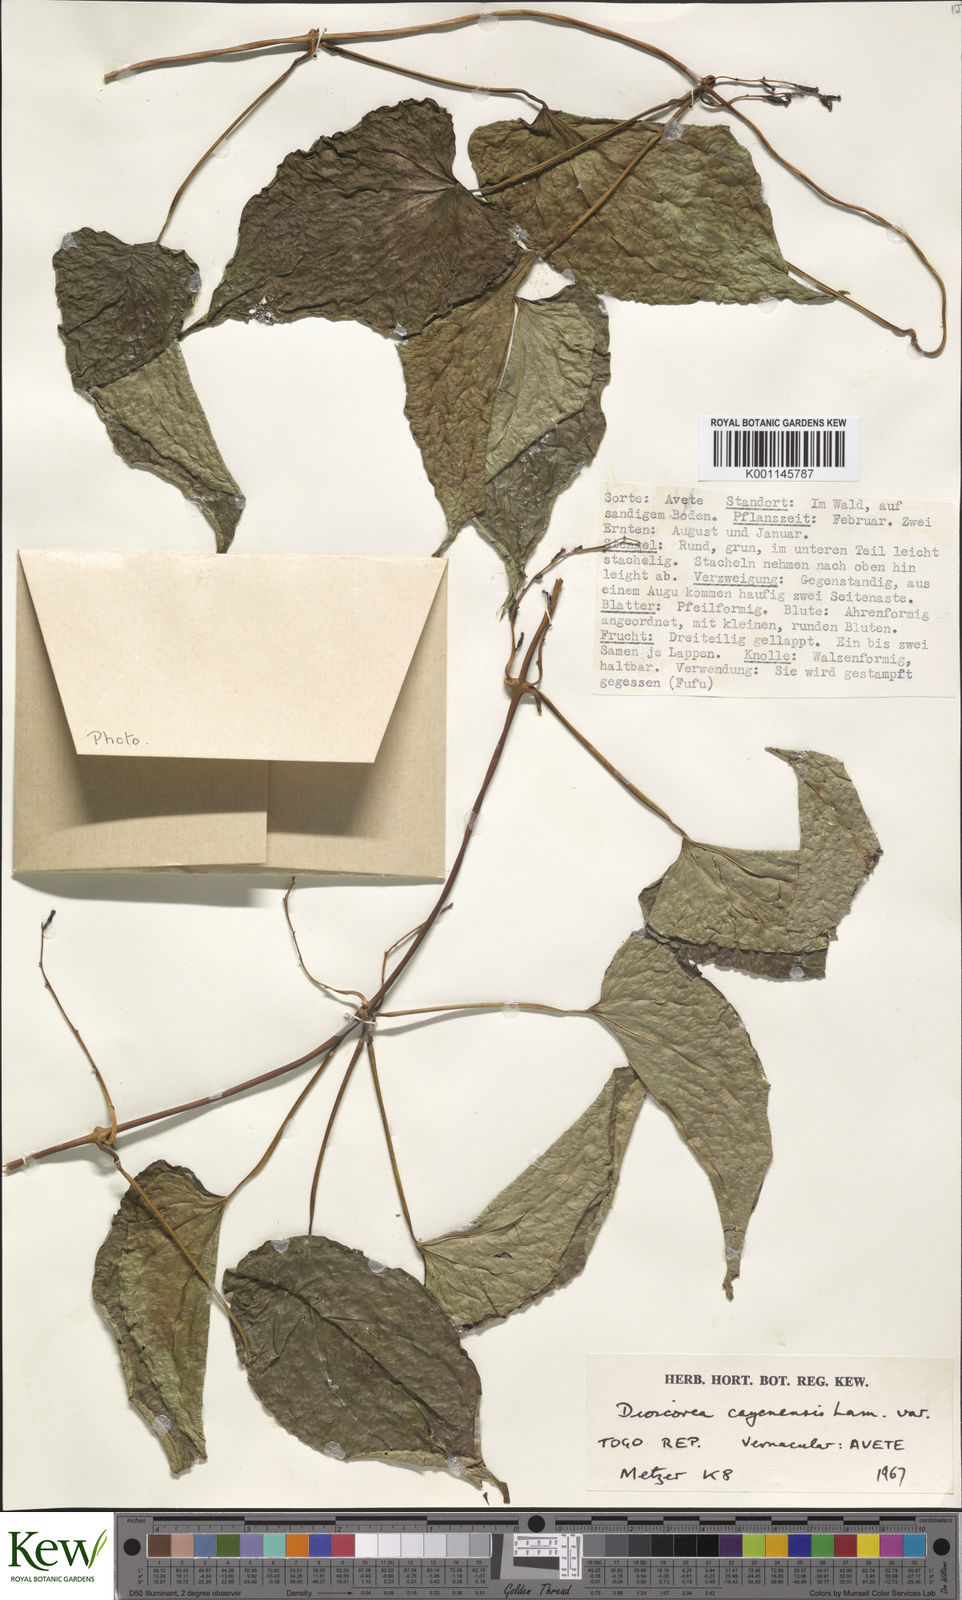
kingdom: Plantae
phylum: Tracheophyta
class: Liliopsida
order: Dioscoreales
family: Dioscoreaceae
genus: Dioscorea
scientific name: Dioscorea cayenensis
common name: Attoto yam
